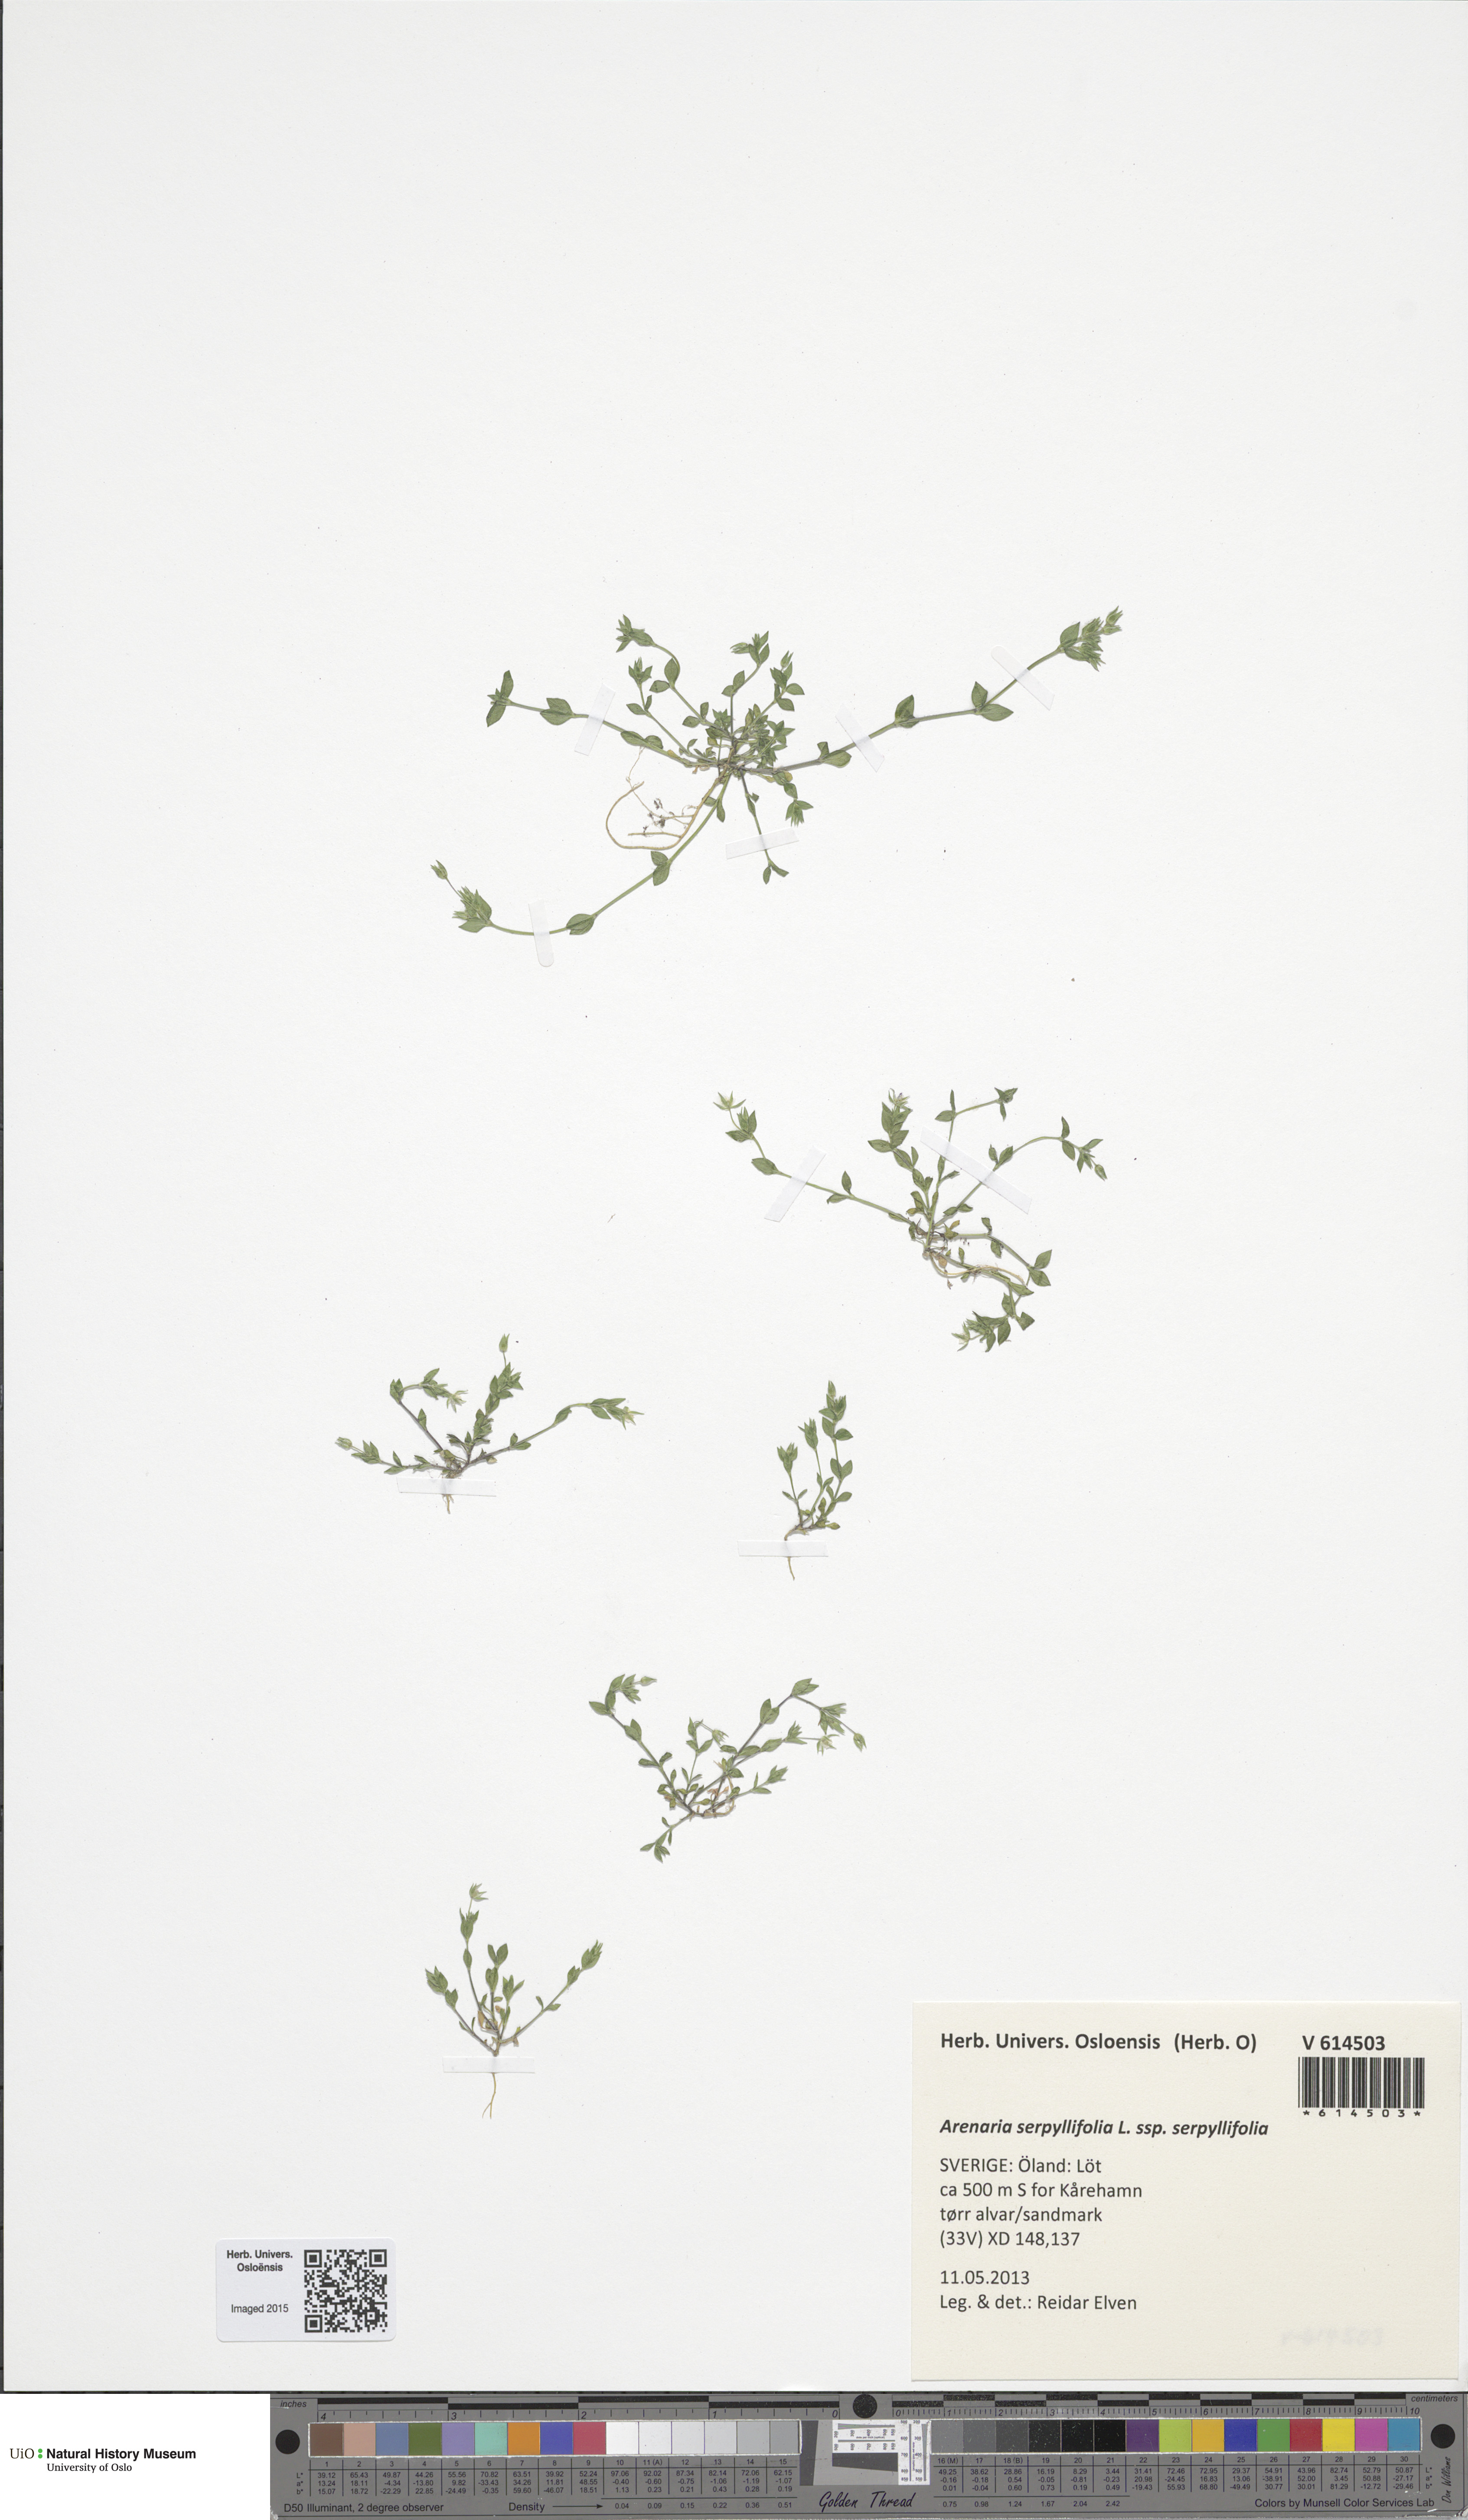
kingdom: Plantae
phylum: Tracheophyta
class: Magnoliopsida
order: Caryophyllales
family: Caryophyllaceae
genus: Arenaria
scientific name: Arenaria serpyllifolia
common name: Thyme-leaved sandwort
